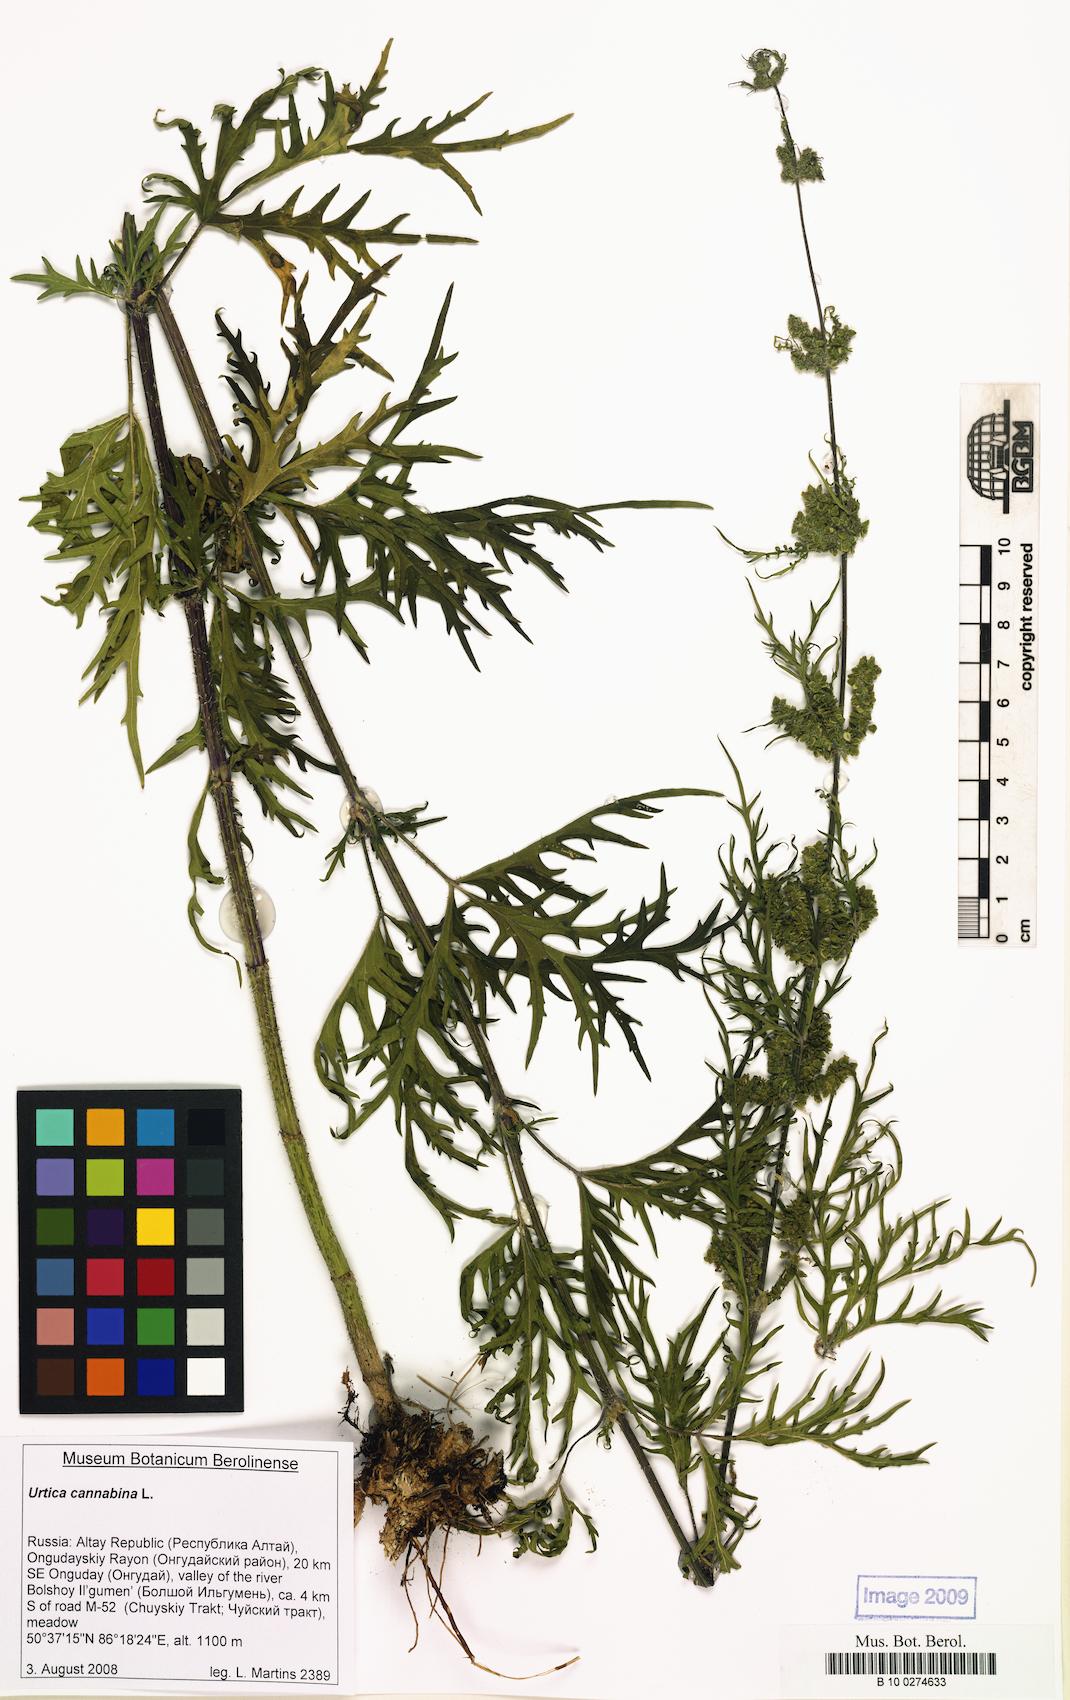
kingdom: Plantae
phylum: Tracheophyta
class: Magnoliopsida
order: Rosales
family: Urticaceae
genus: Urtica
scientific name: Urtica cannabina
